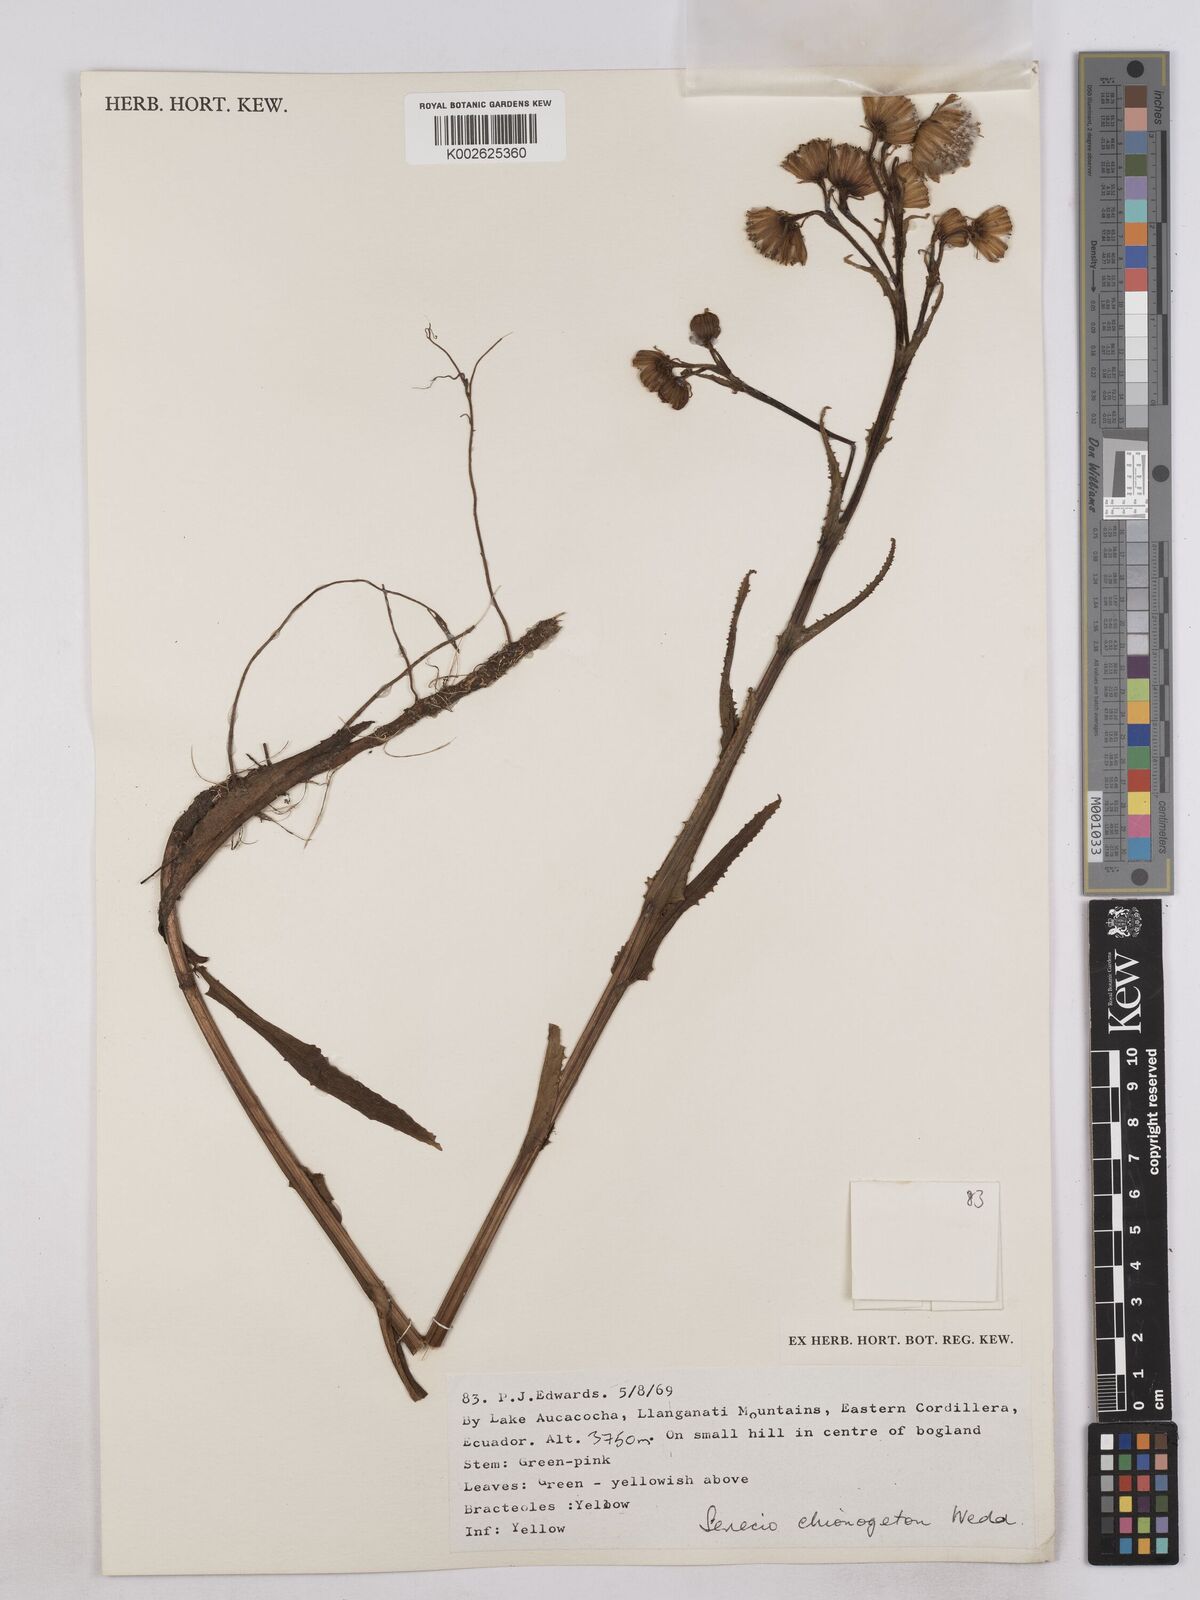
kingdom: Plantae
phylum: Tracheophyta
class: Magnoliopsida
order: Asterales
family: Asteraceae
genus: Senecio
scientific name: Senecio chionogeton
